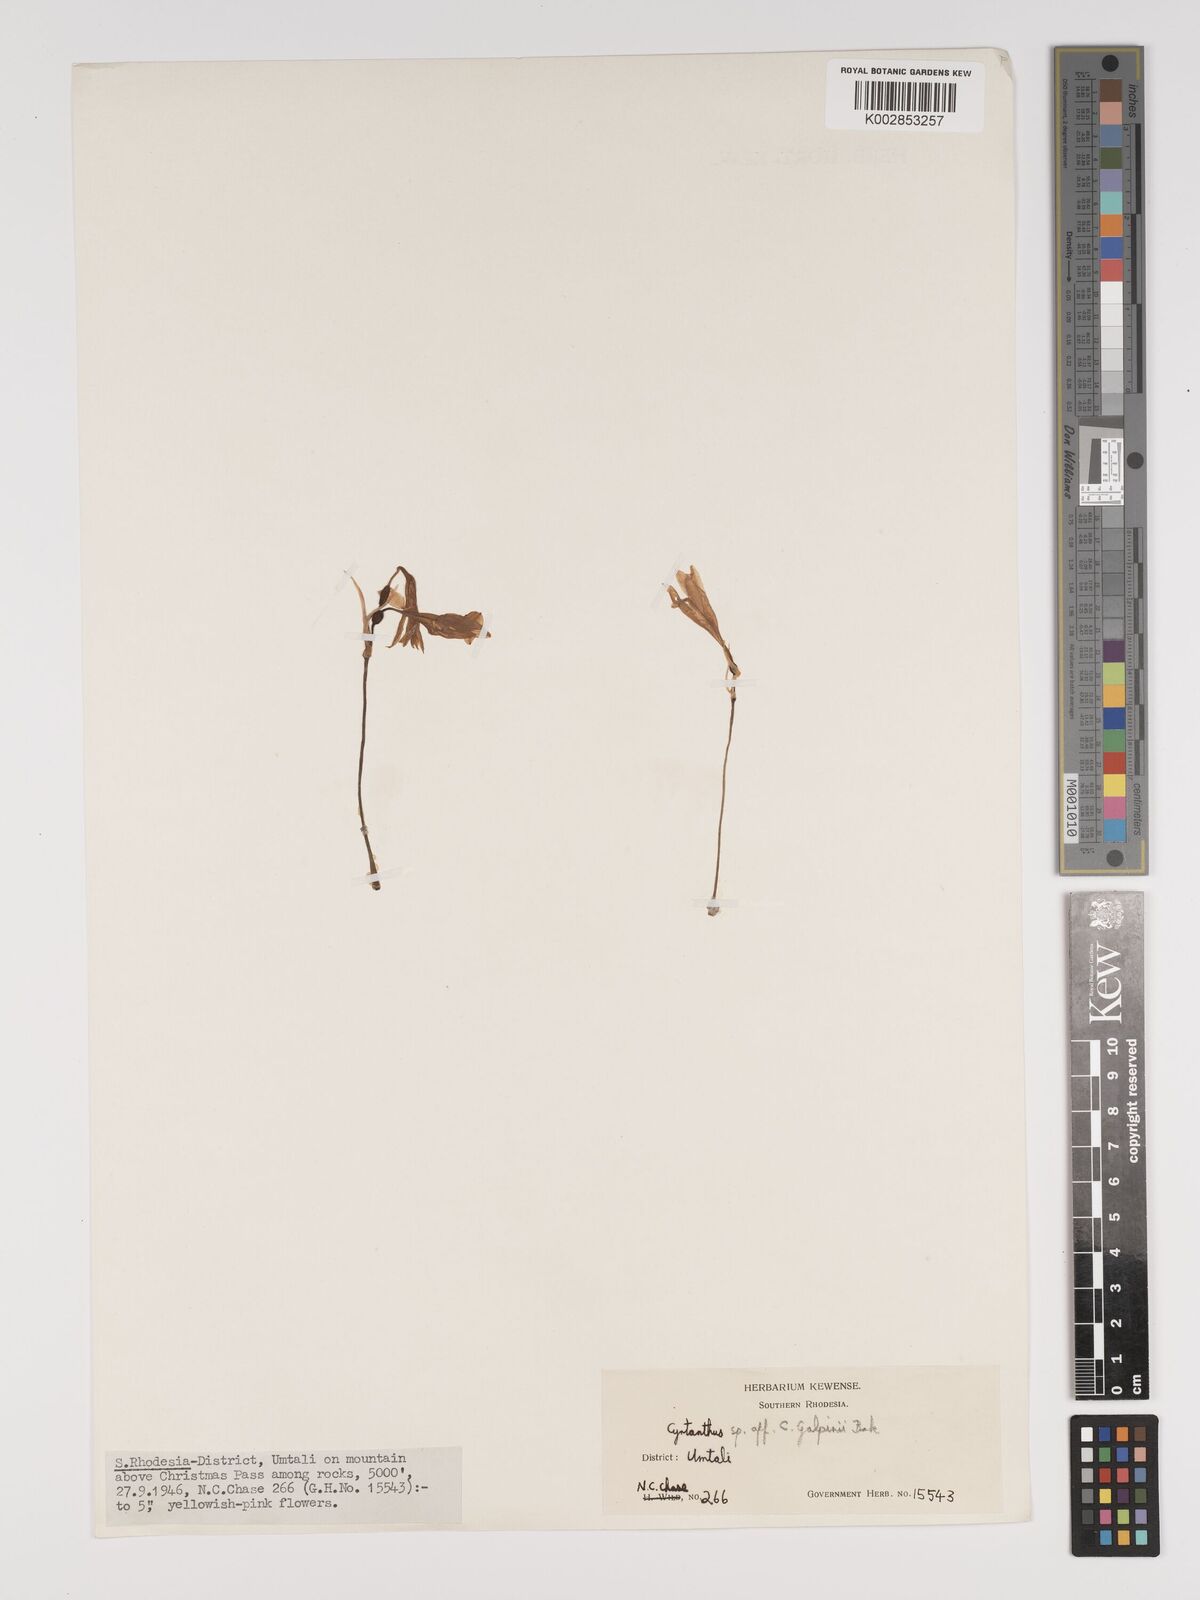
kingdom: Plantae
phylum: Tracheophyta
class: Liliopsida
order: Asparagales
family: Amaryllidaceae
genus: Cyrtanthus
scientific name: Cyrtanthus galpinii
